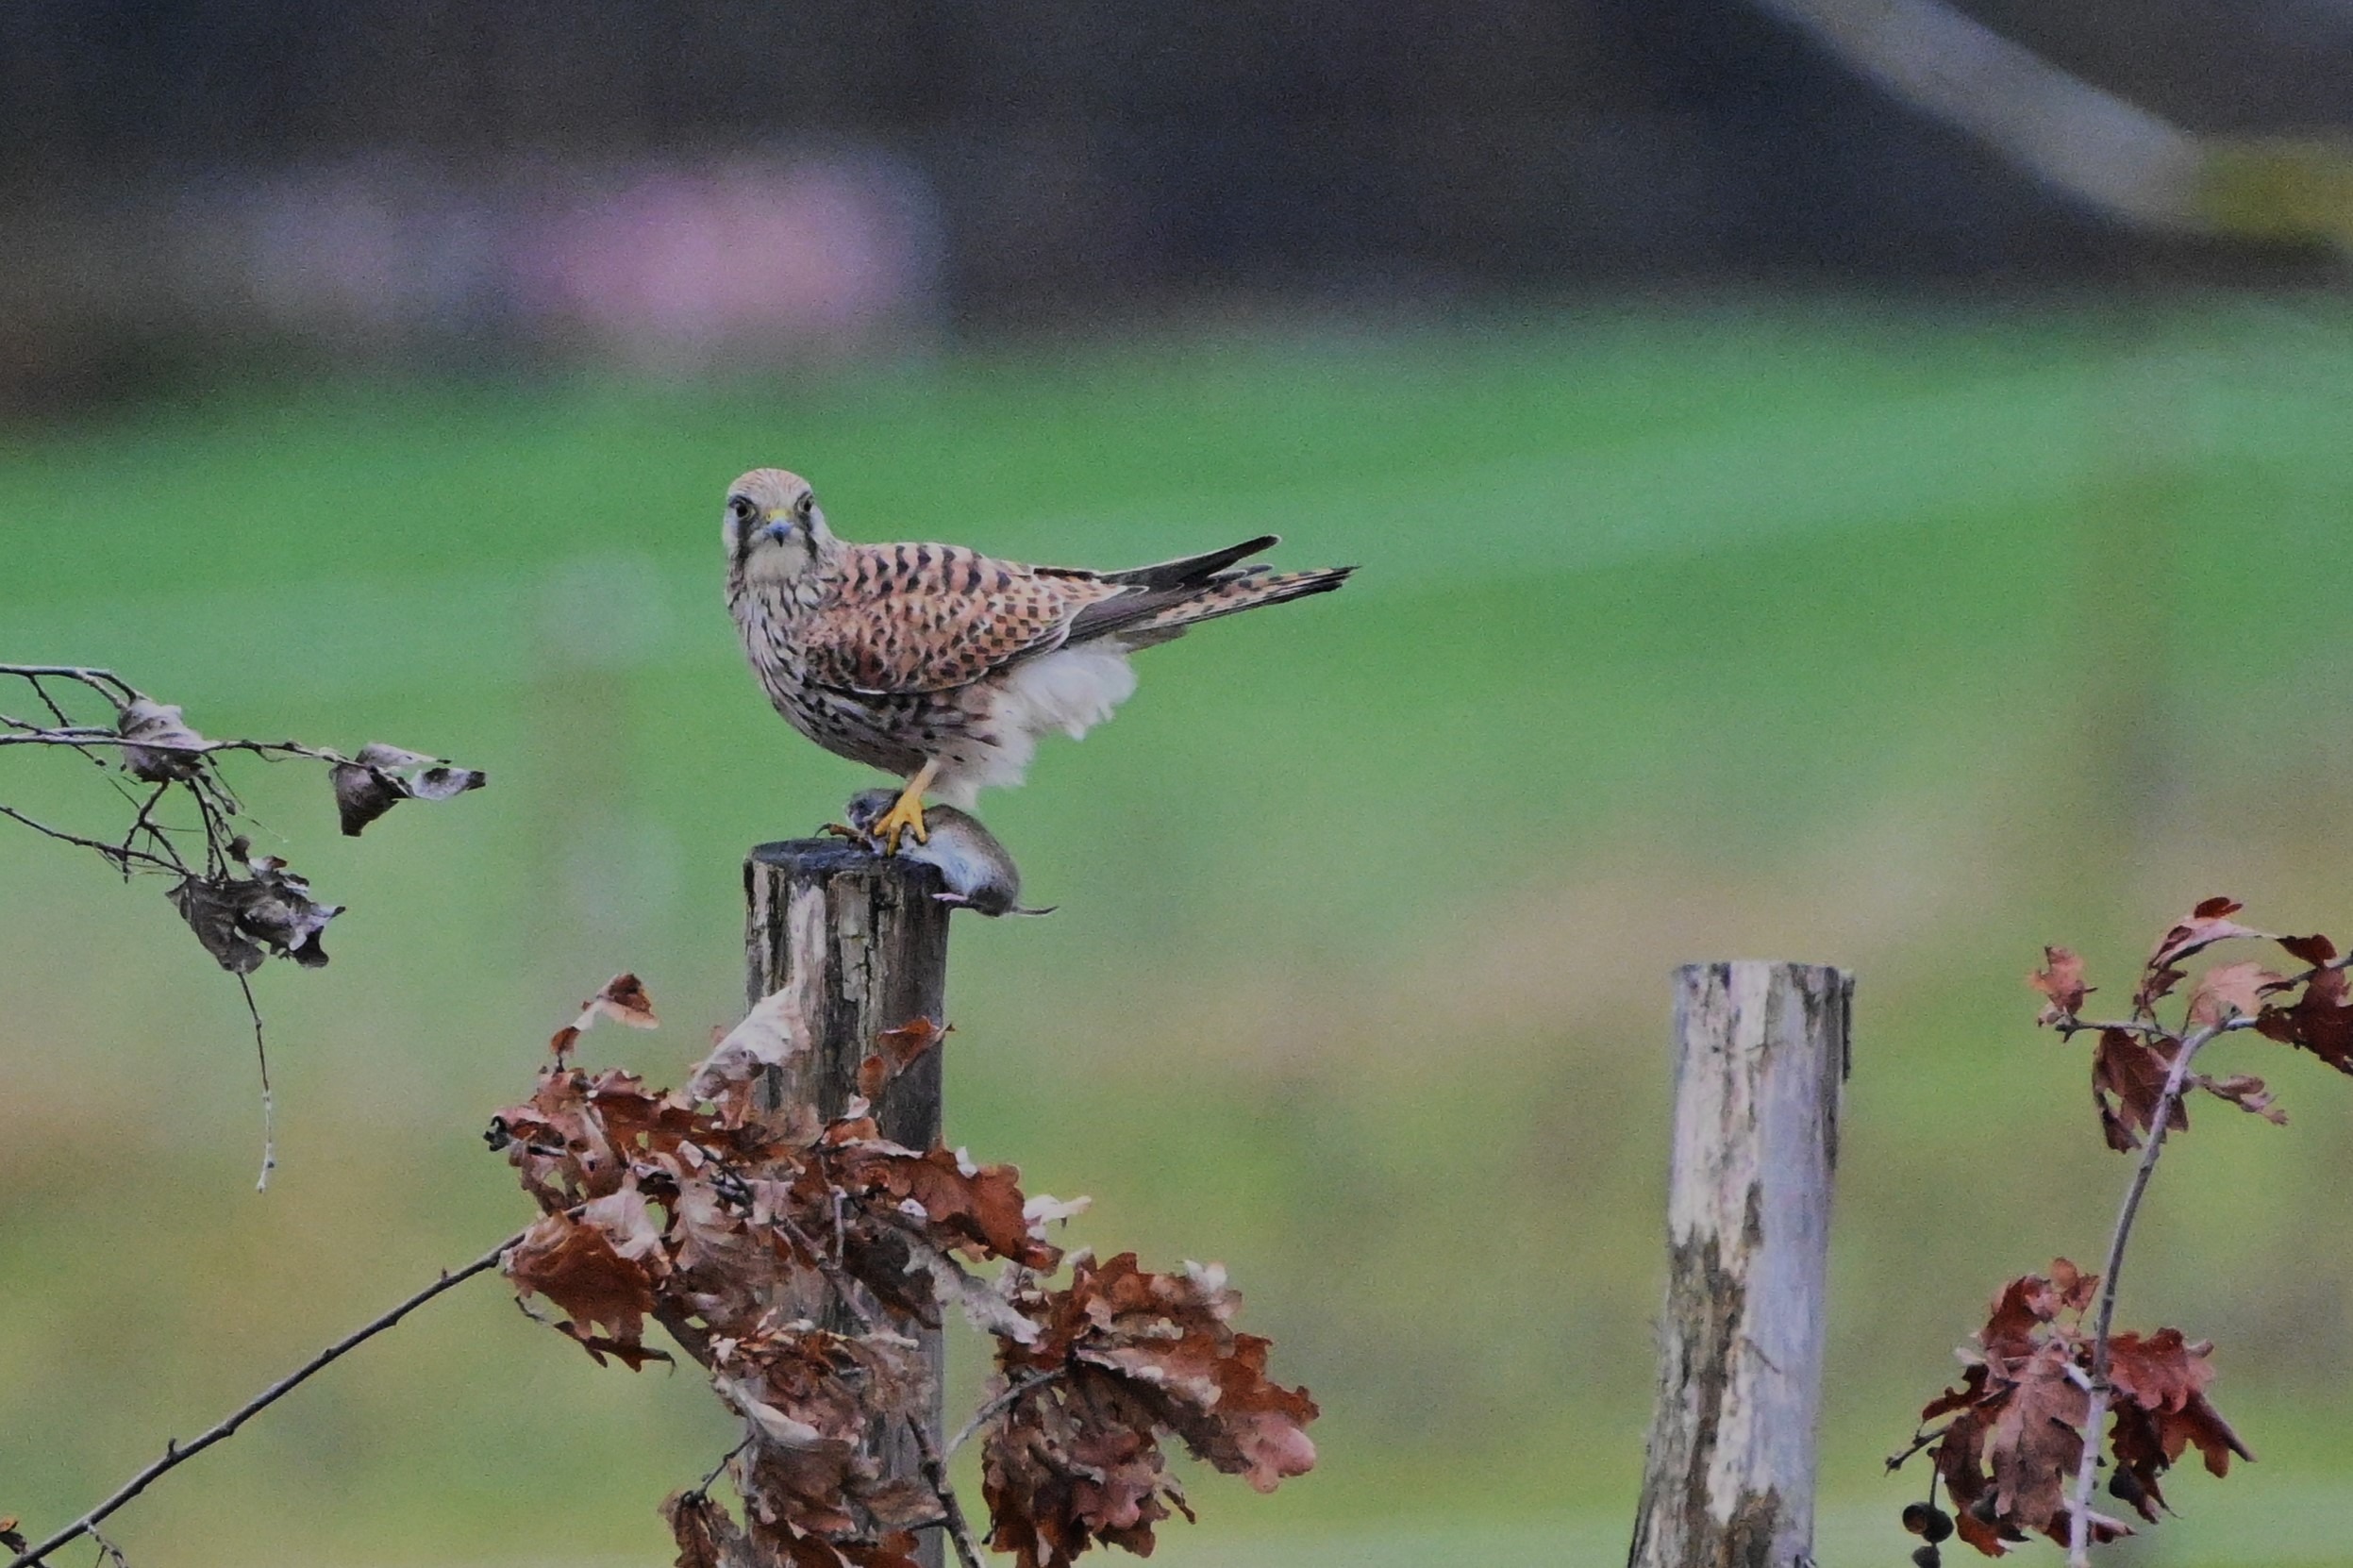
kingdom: Animalia
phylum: Chordata
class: Aves
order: Falconiformes
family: Falconidae
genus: Falco
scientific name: Falco tinnunculus
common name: Tårnfalk
